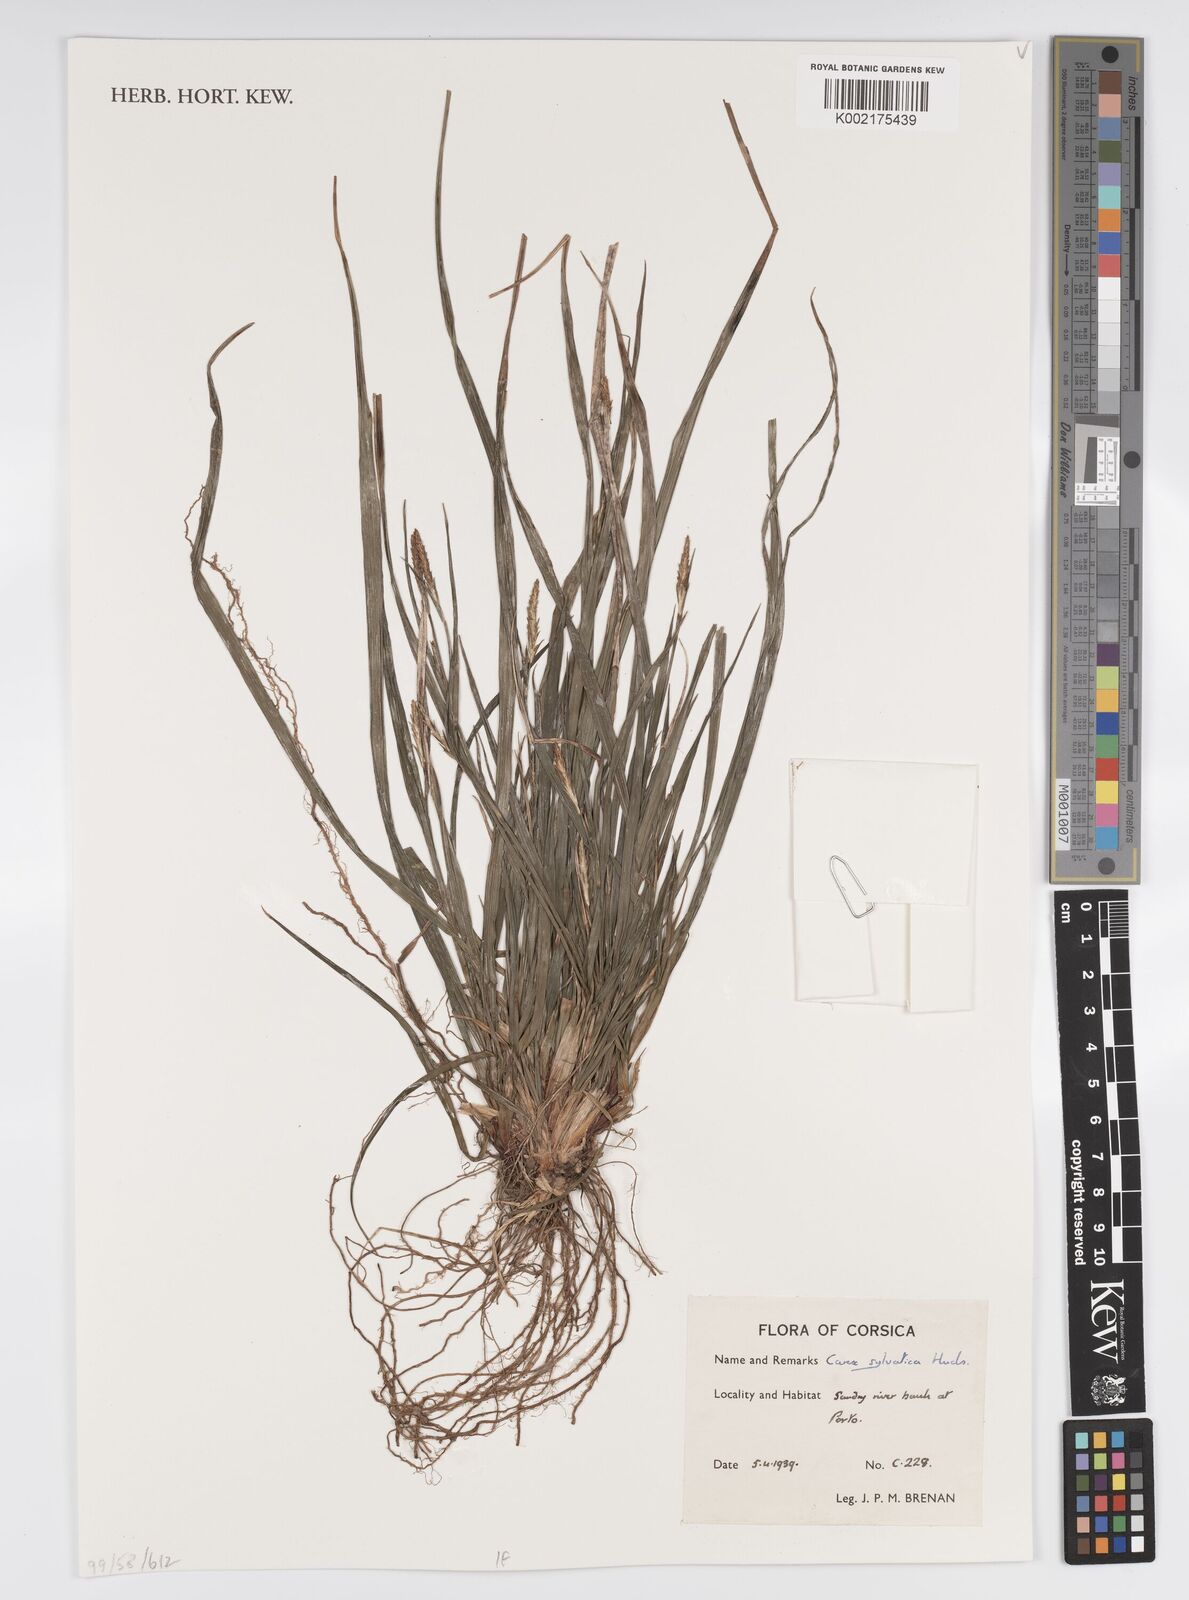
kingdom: Plantae
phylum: Tracheophyta
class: Liliopsida
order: Poales
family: Cyperaceae
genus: Carex
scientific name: Carex sylvatica
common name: Wood-sedge
